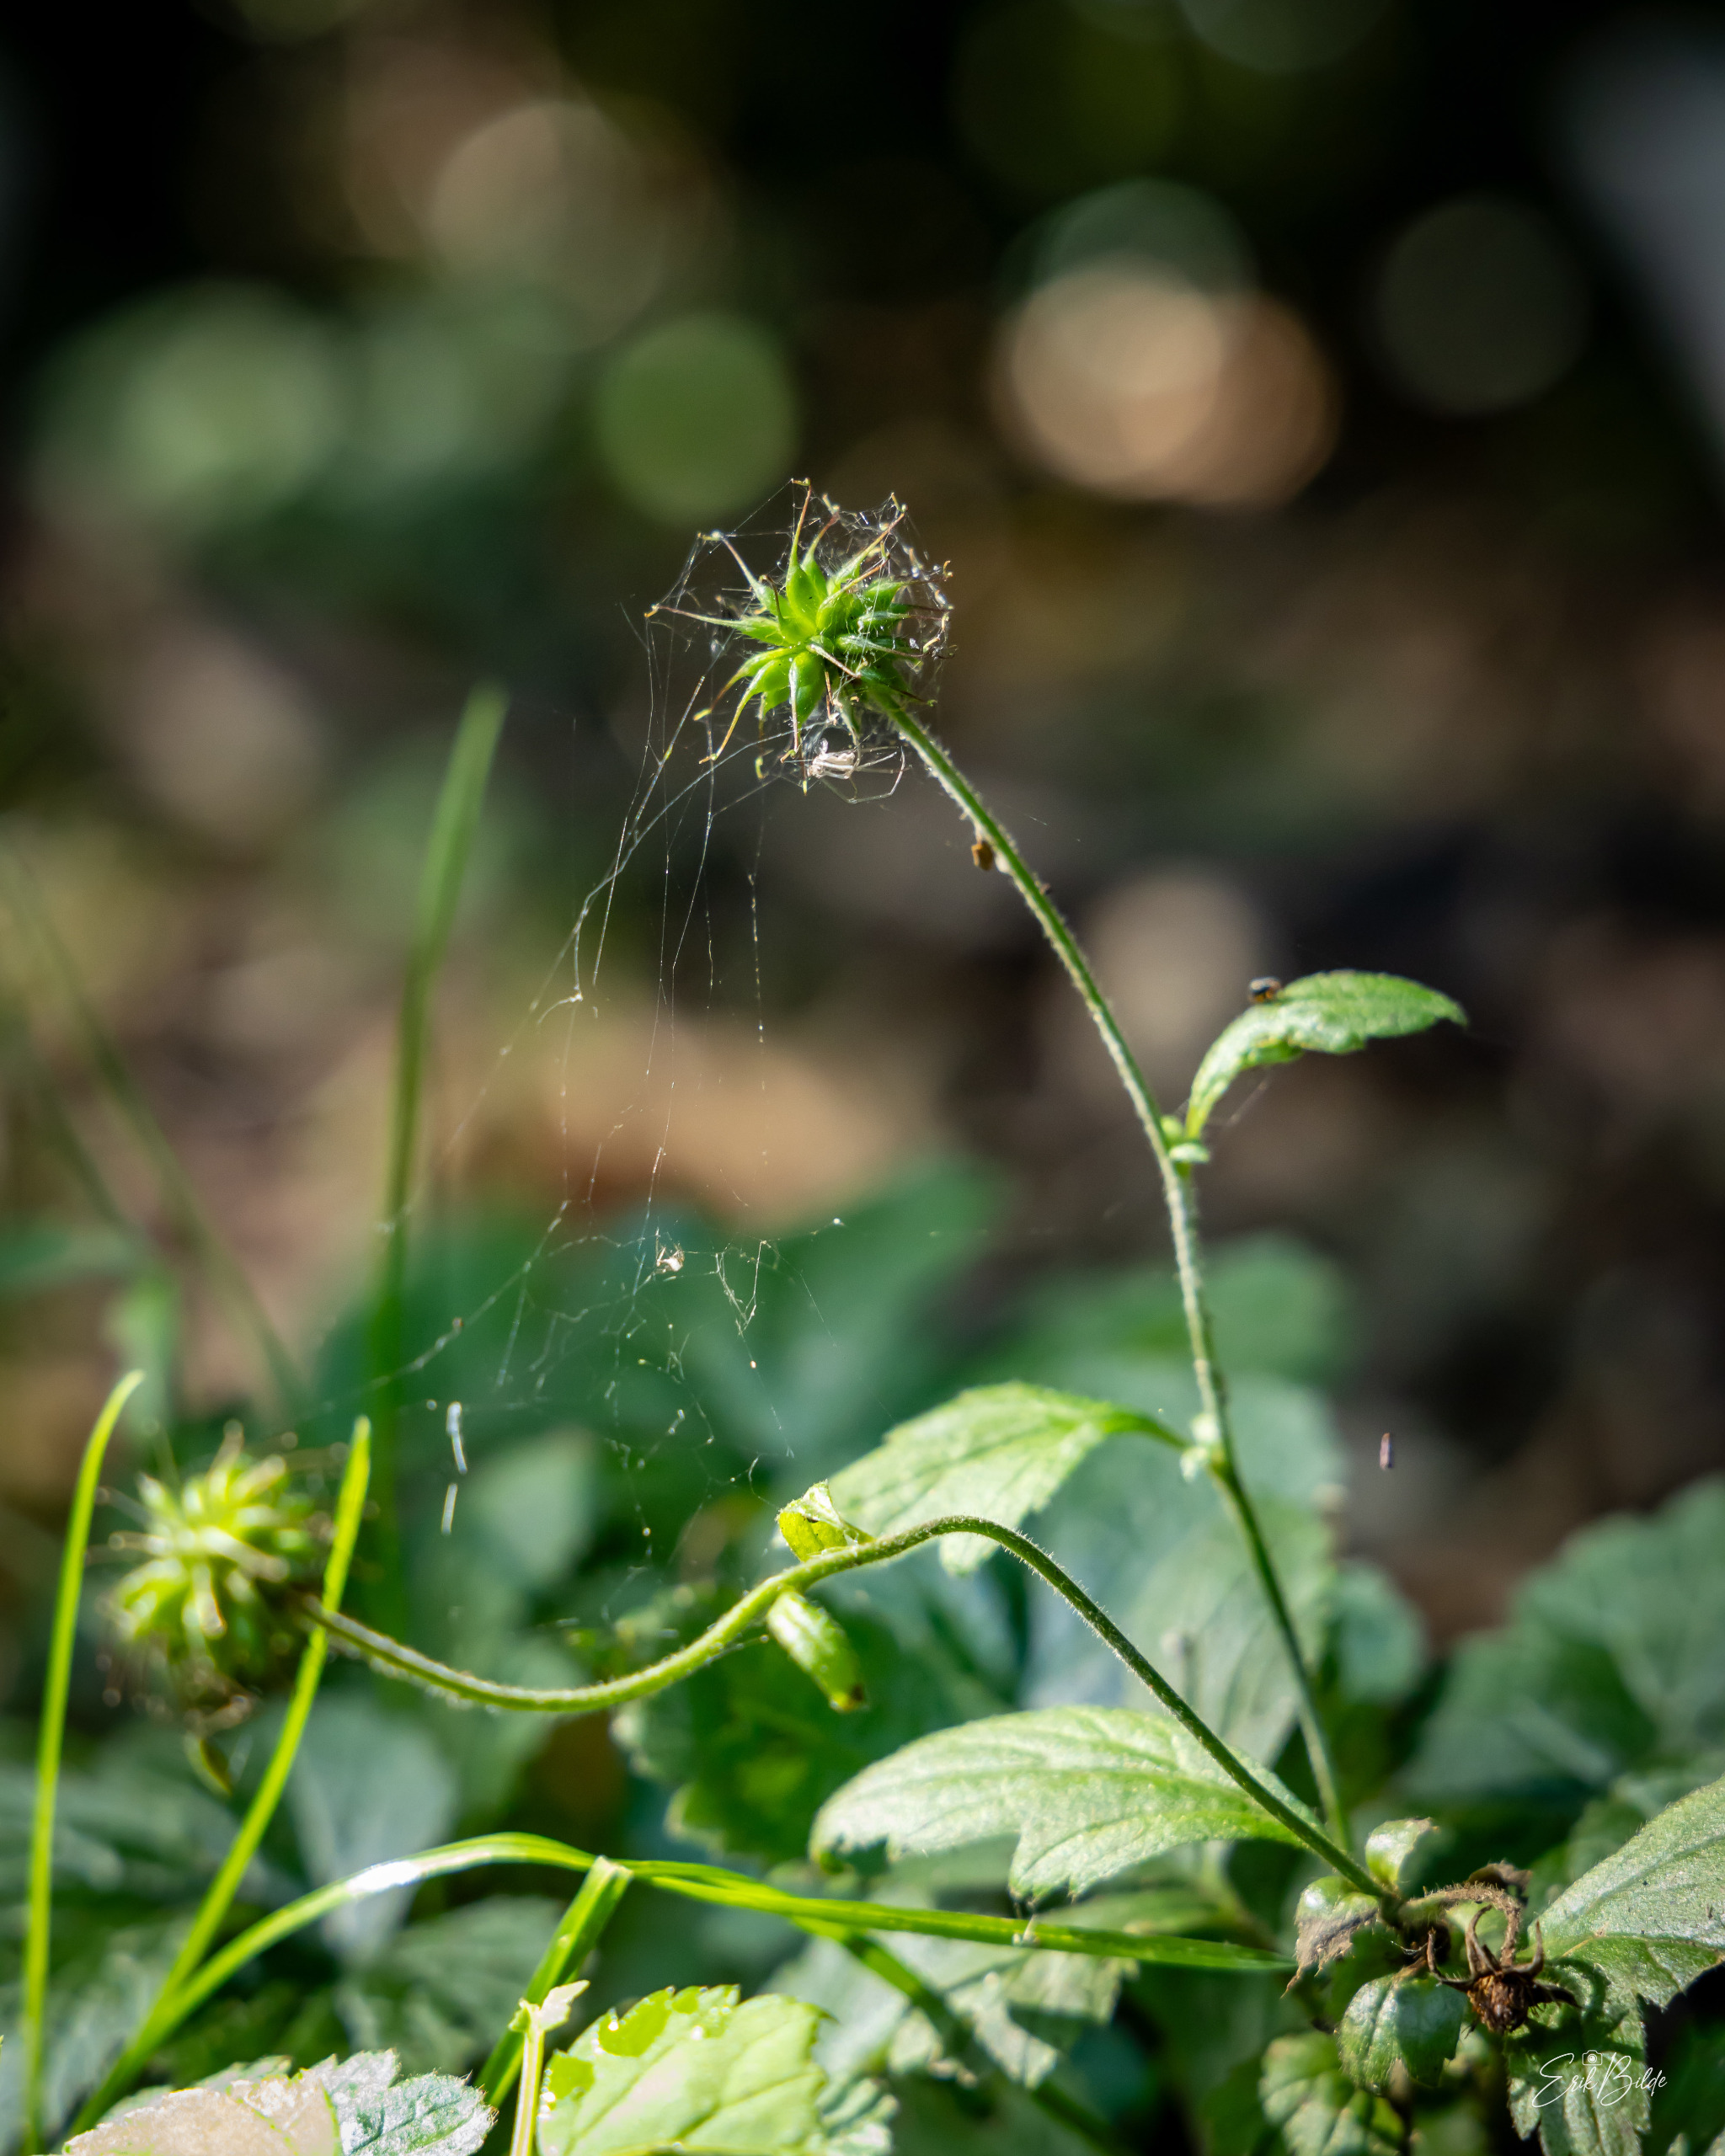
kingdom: Plantae
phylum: Tracheophyta
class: Magnoliopsida
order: Rosales
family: Rosaceae
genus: Geum
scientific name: Geum urbanum
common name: Feber-nellikerod
